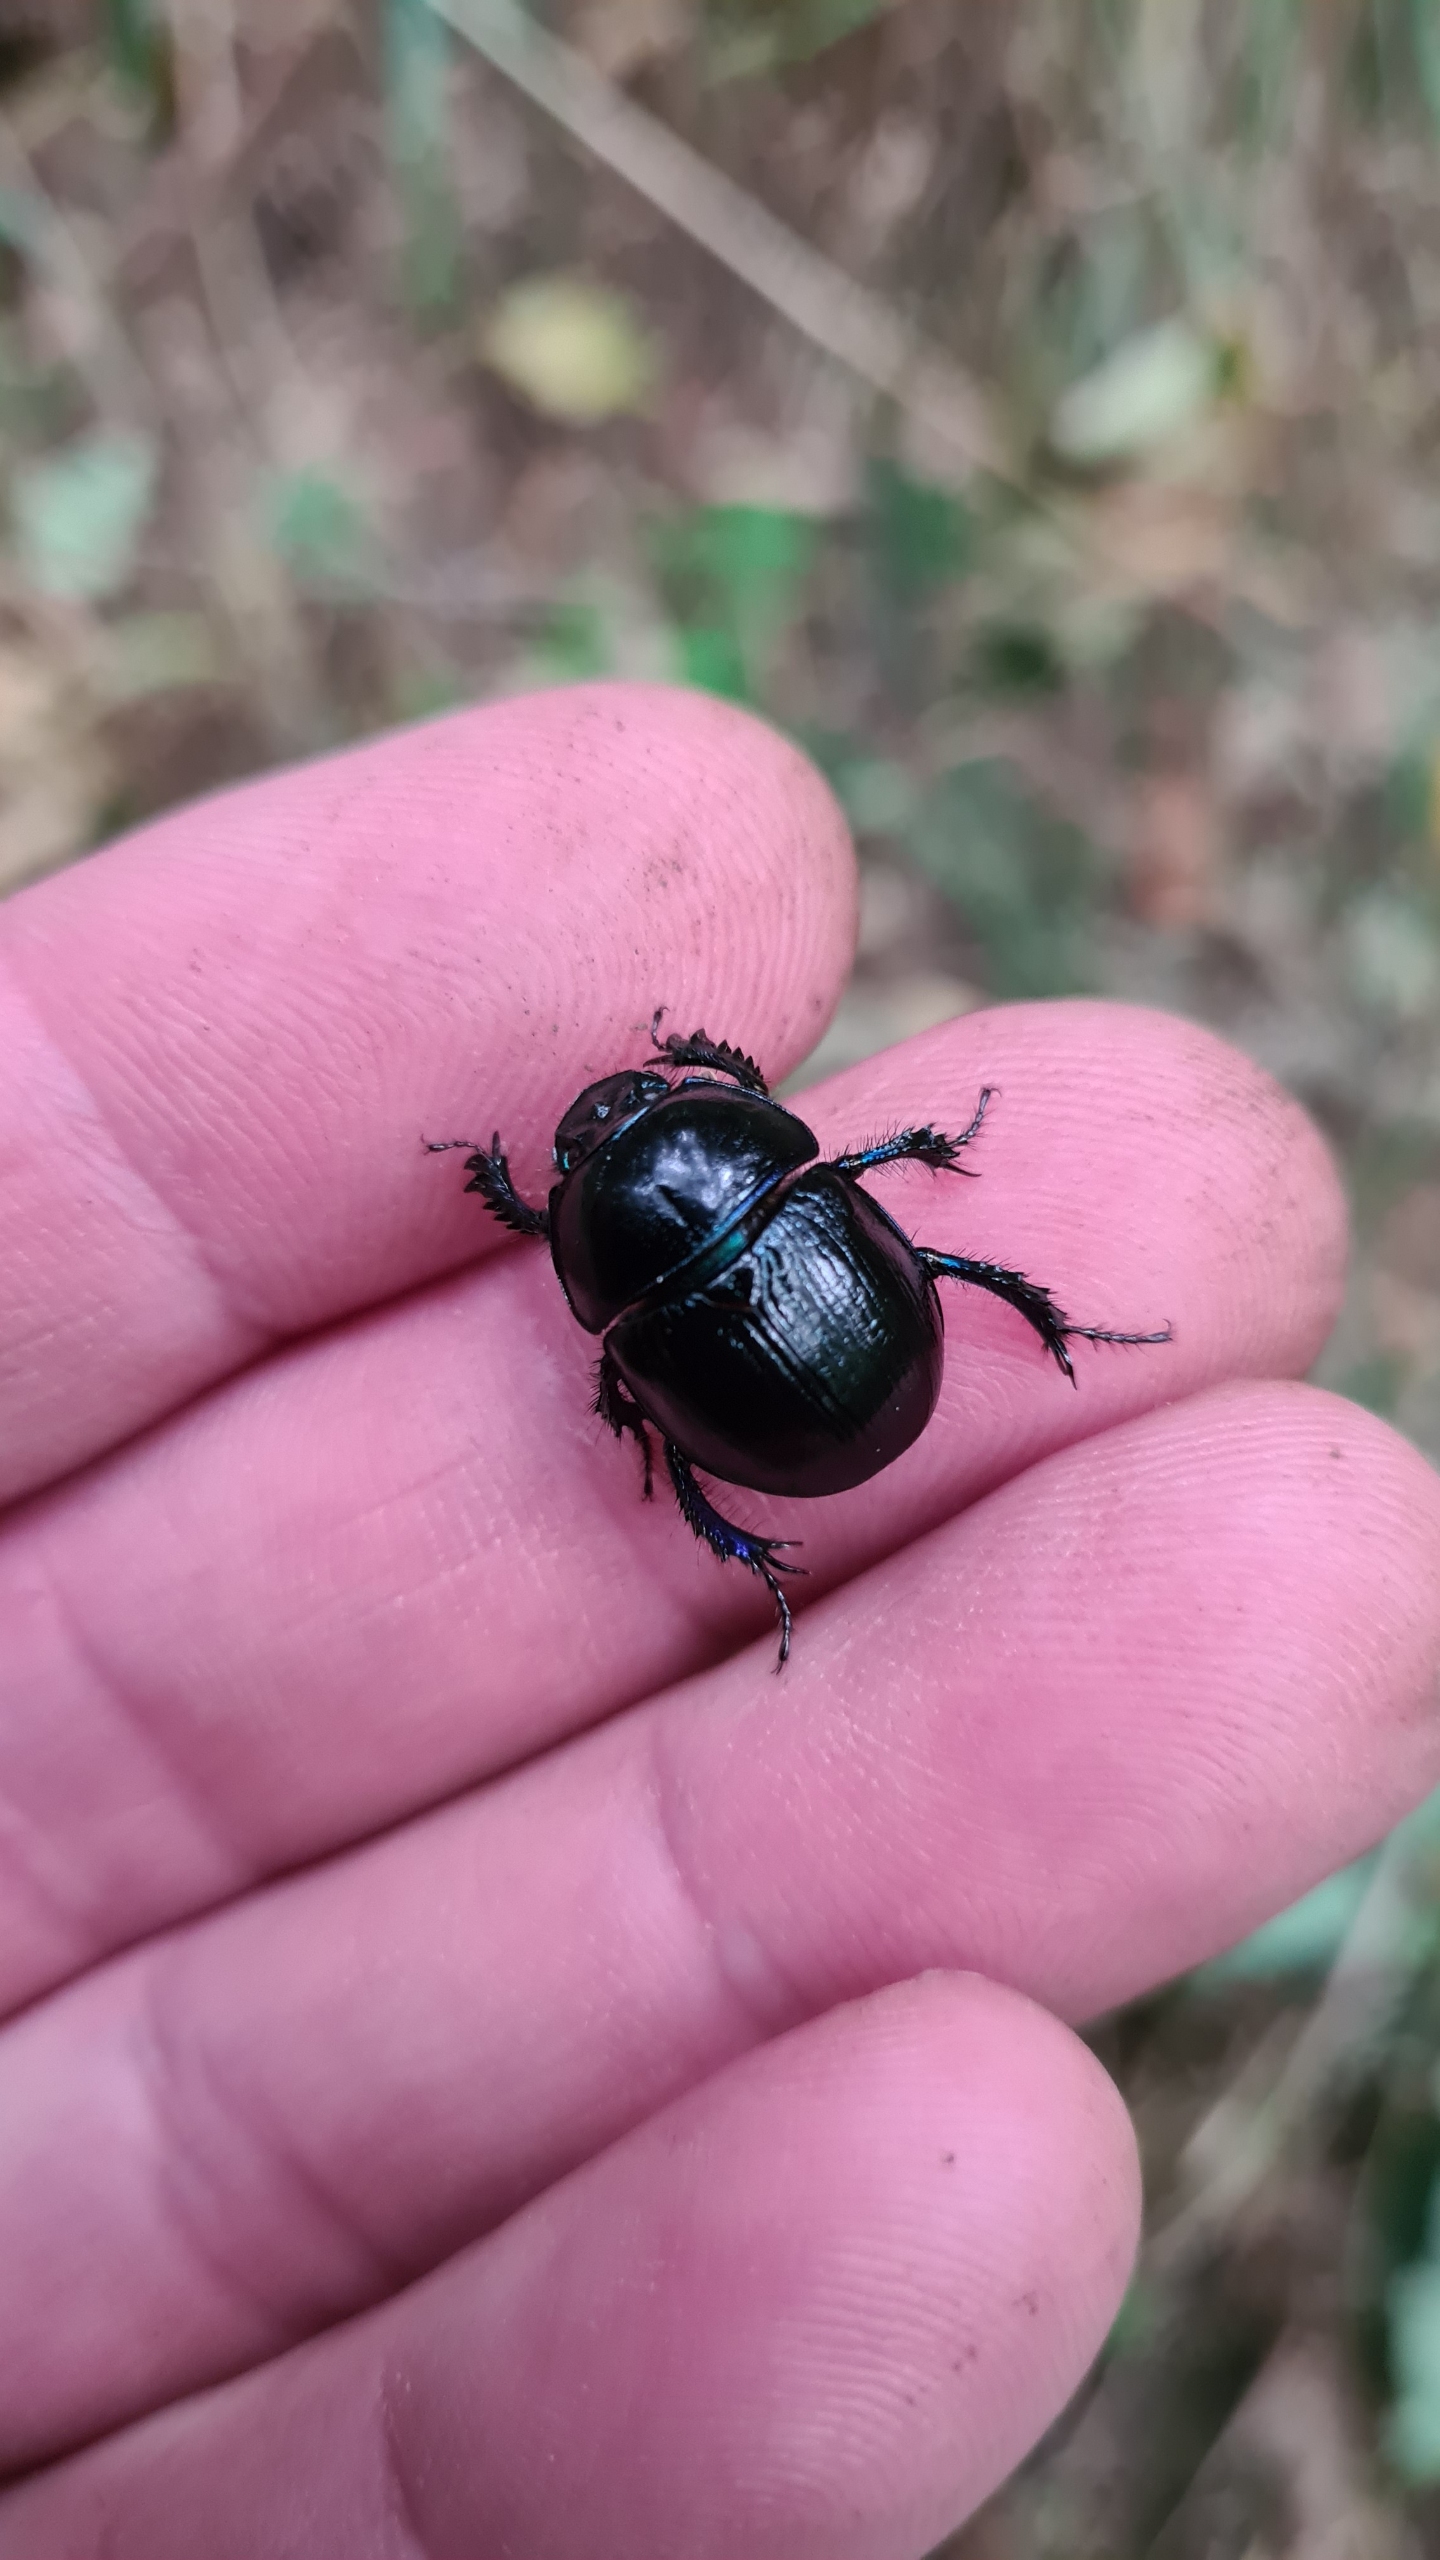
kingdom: Animalia
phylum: Arthropoda
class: Insecta
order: Coleoptera
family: Geotrupidae
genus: Anoplotrupes
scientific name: Anoplotrupes stercorosus
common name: Skovskarnbasse
